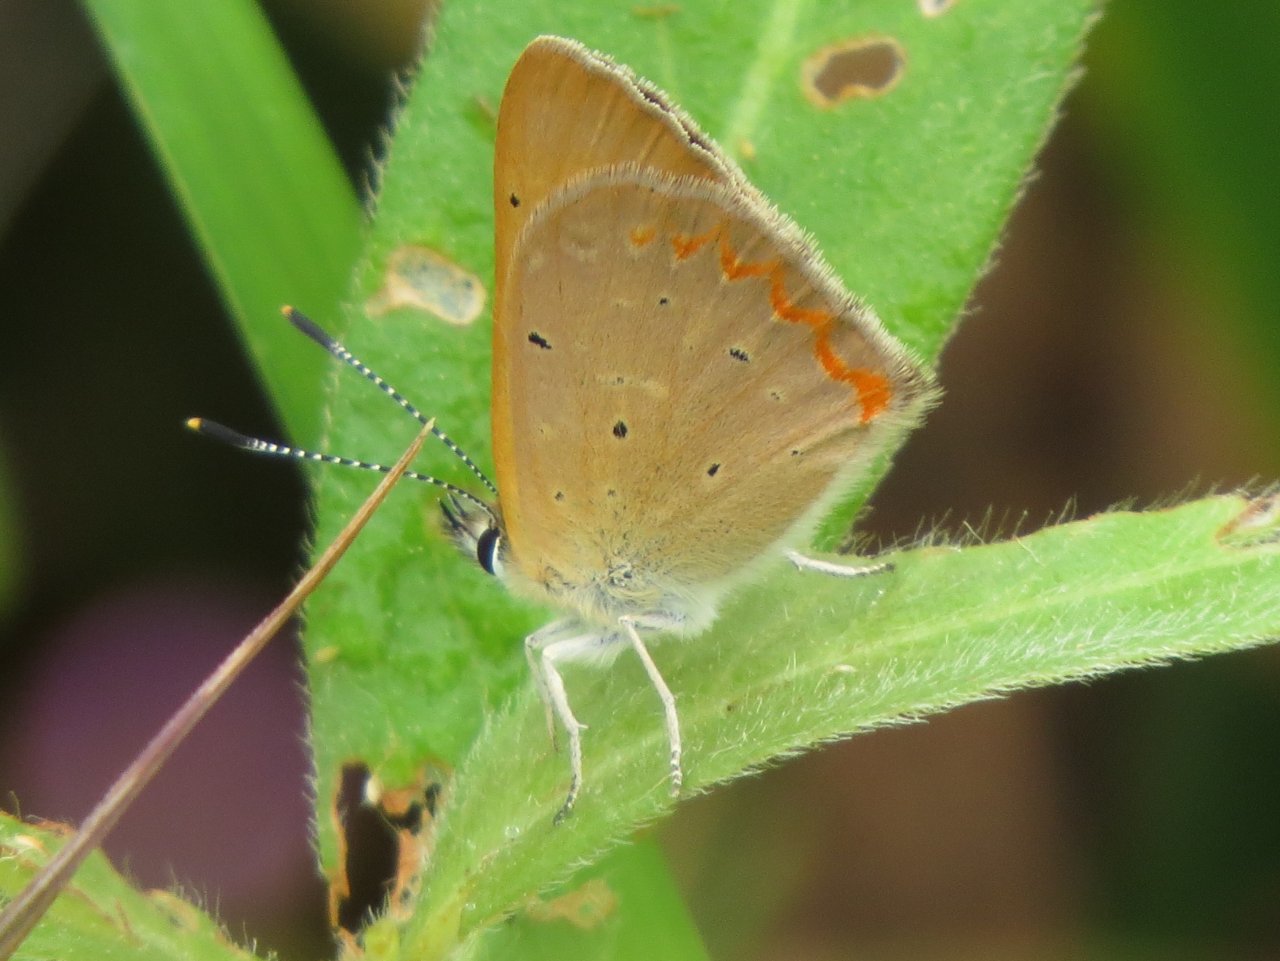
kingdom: Animalia
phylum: Arthropoda
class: Insecta
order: Lepidoptera
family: Sesiidae
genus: Sesia
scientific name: Sesia Lycaena helloides
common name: Purplish Copper
